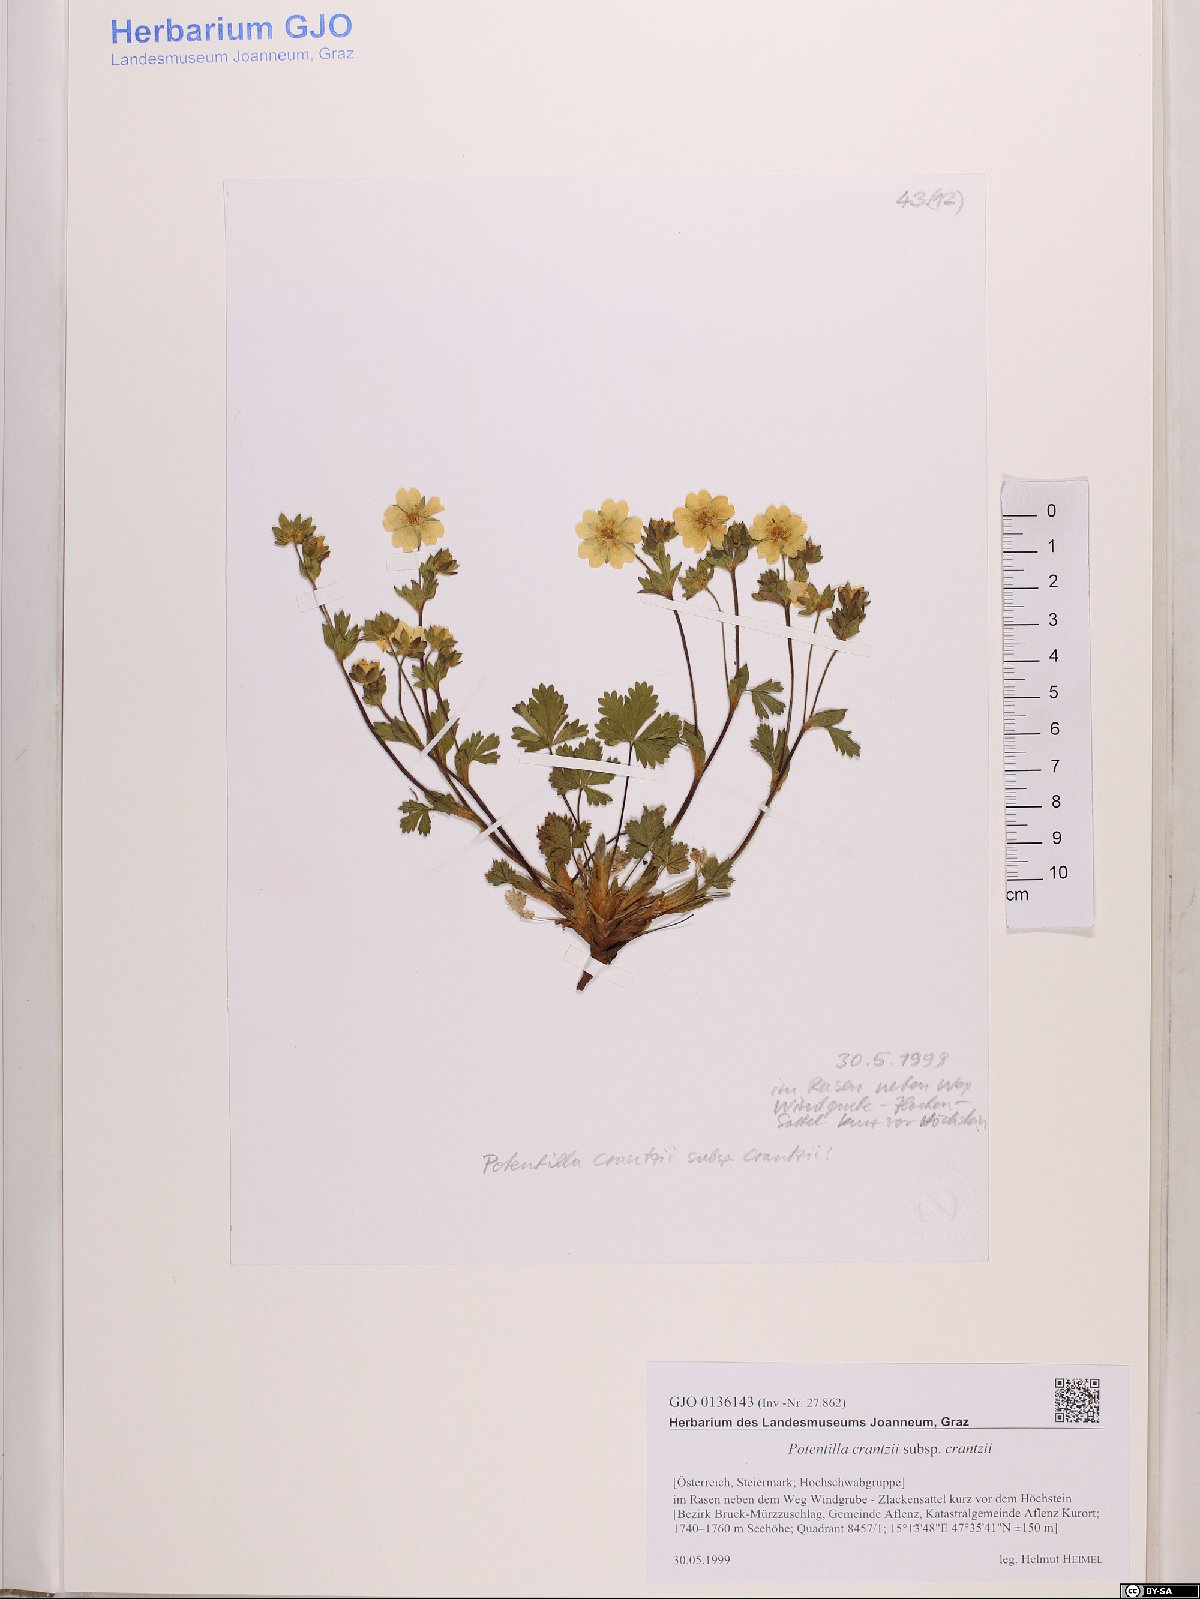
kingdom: Plantae
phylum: Tracheophyta
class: Magnoliopsida
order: Rosales
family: Rosaceae
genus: Potentilla
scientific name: Potentilla crantzii
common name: Alpine cinquefoil
